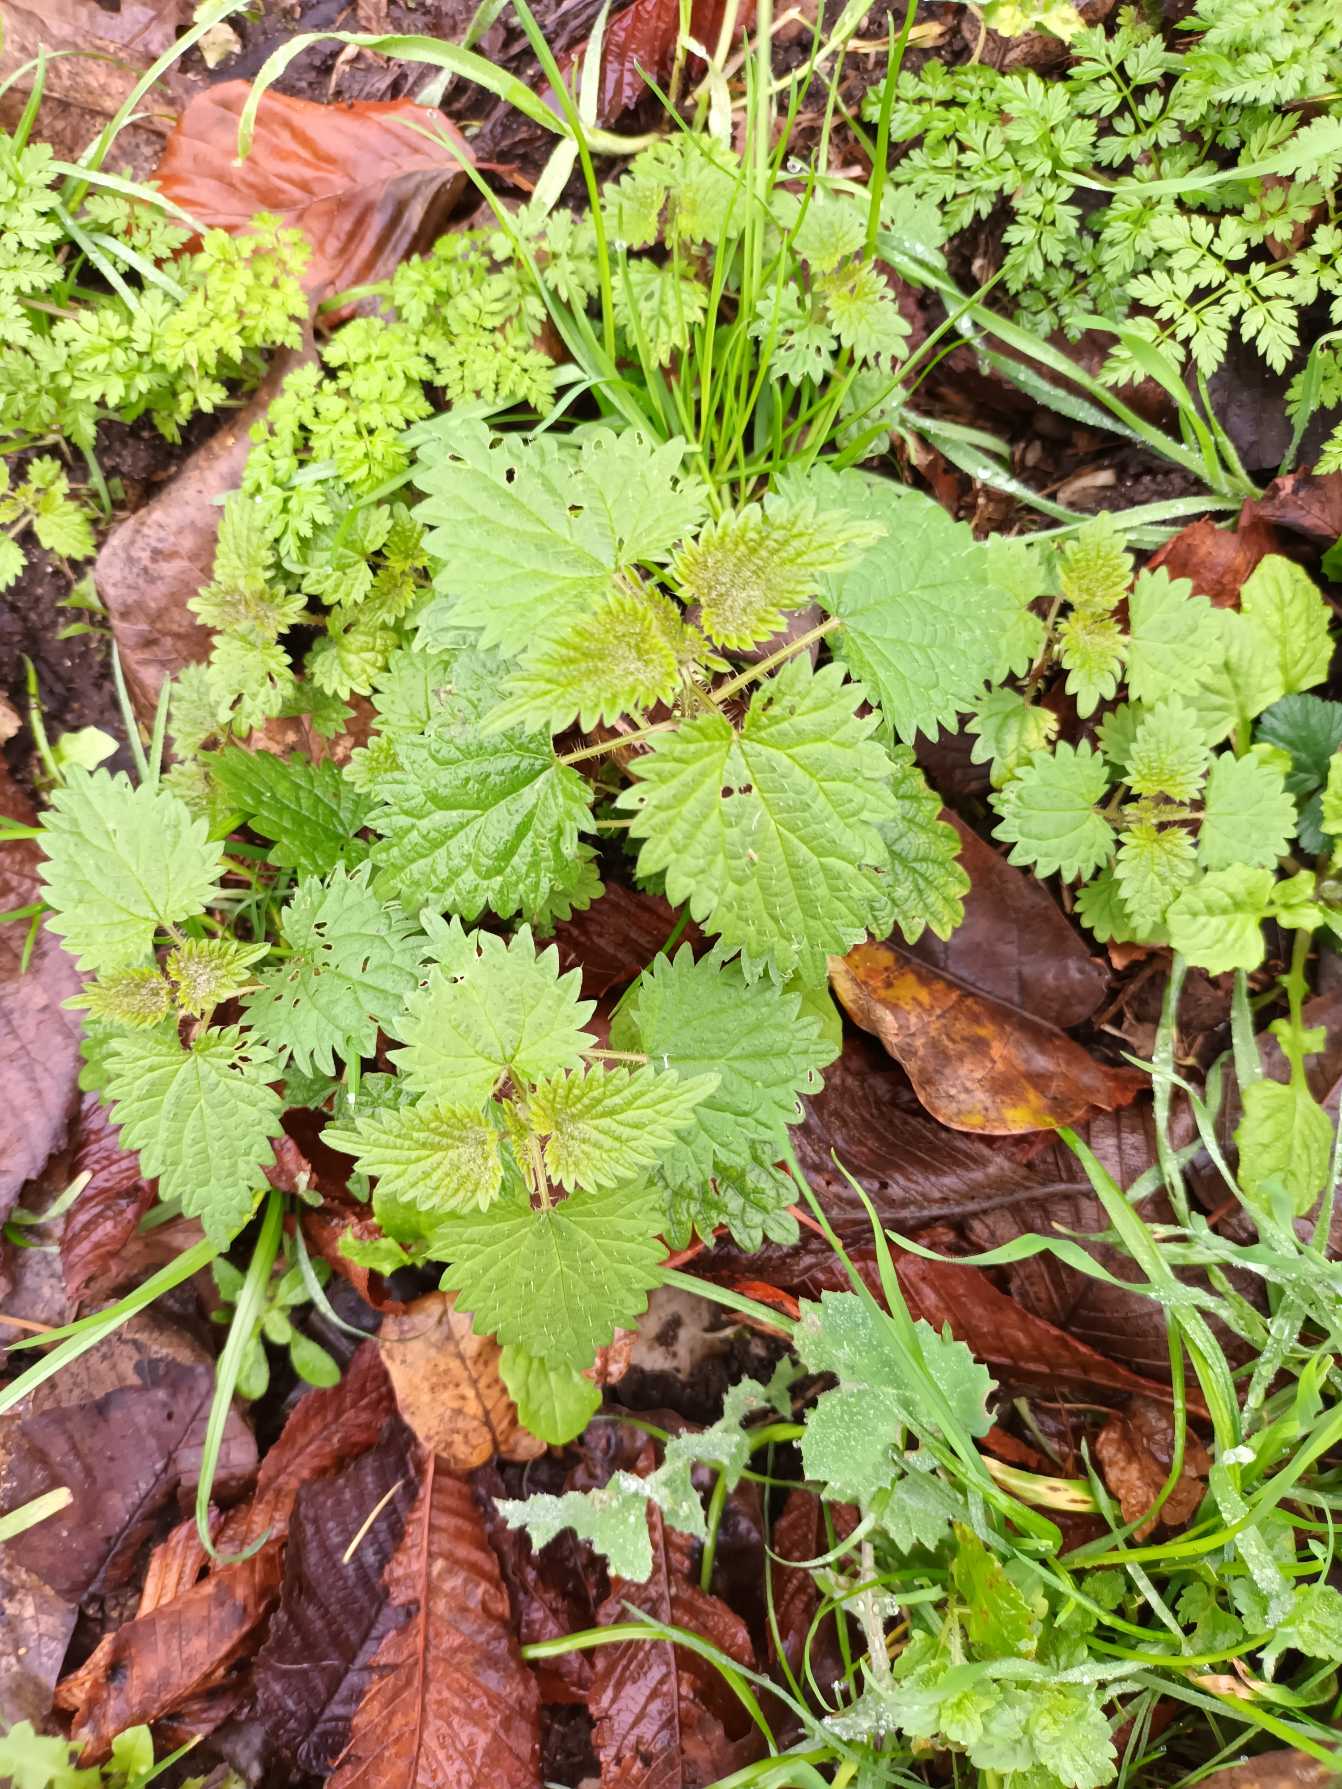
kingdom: Plantae
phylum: Tracheophyta
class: Magnoliopsida
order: Rosales
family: Urticaceae
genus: Urtica
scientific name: Urtica dioica
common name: Stor nælde
